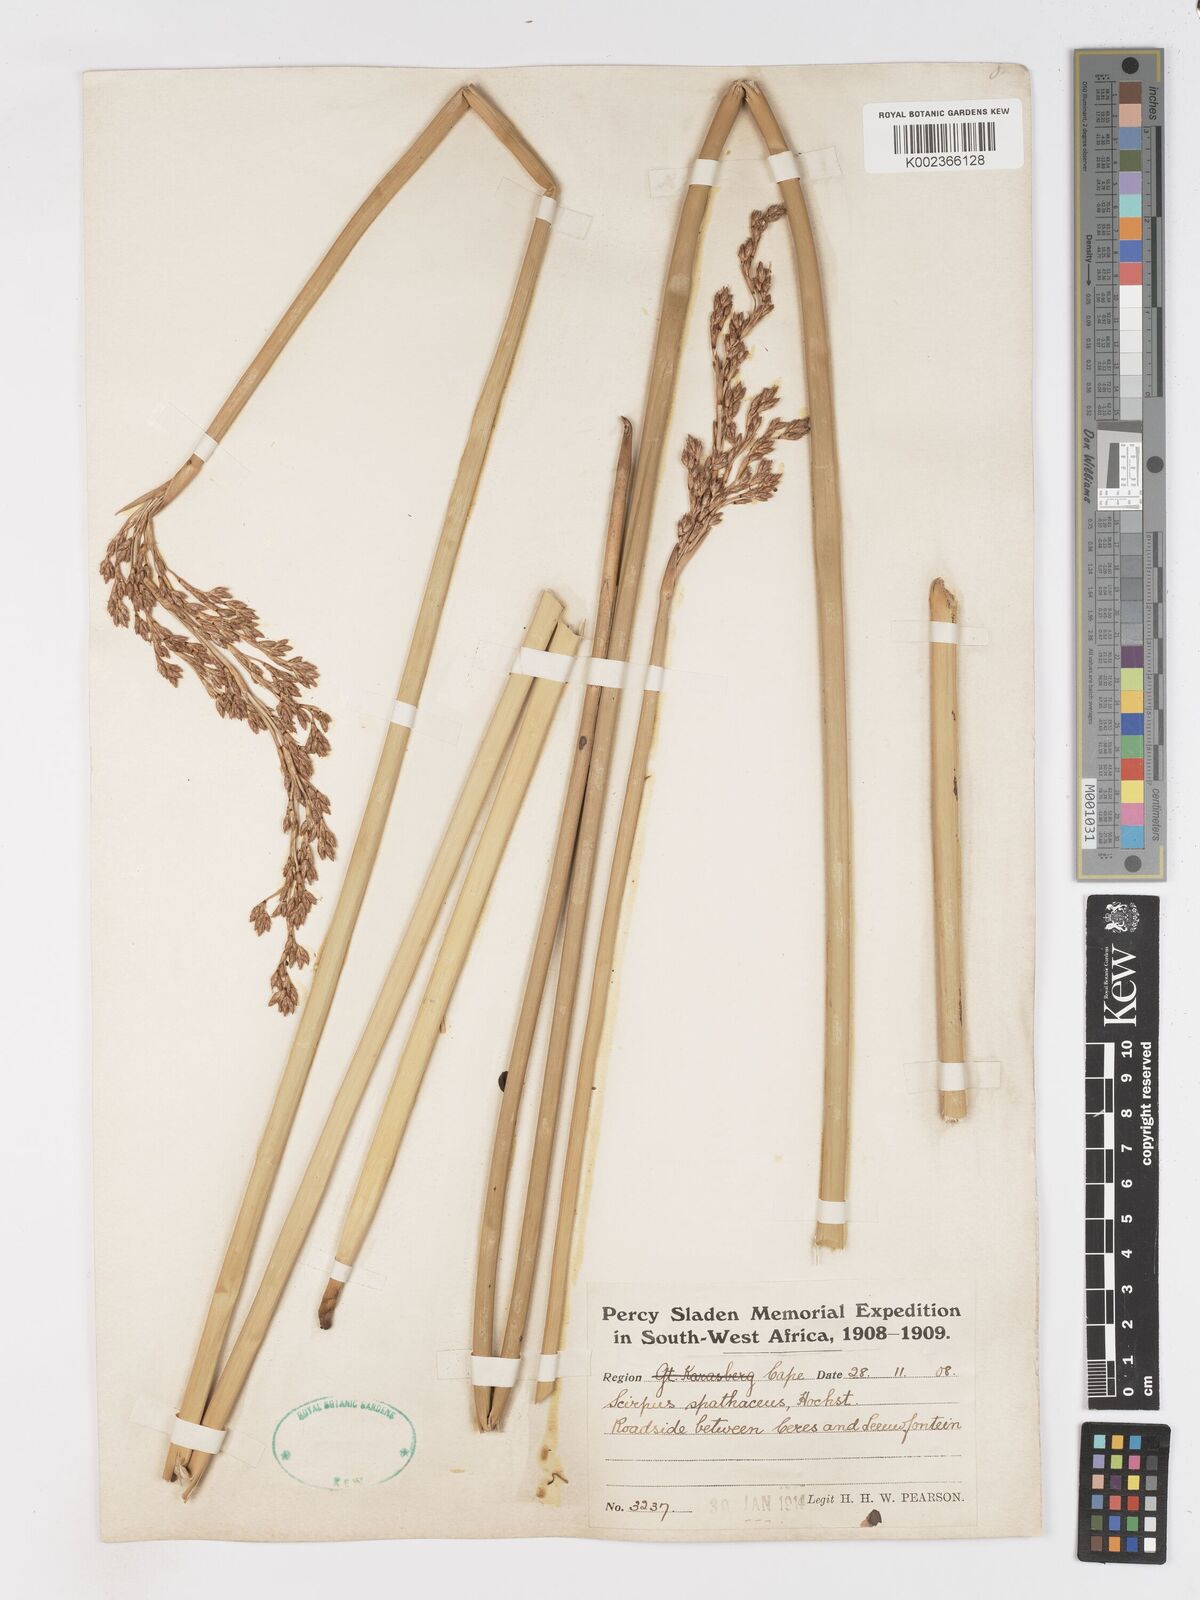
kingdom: Plantae
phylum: Tracheophyta
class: Liliopsida
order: Poales
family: Cyperaceae
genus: Pseudoschoenus
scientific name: Pseudoschoenus inanis
